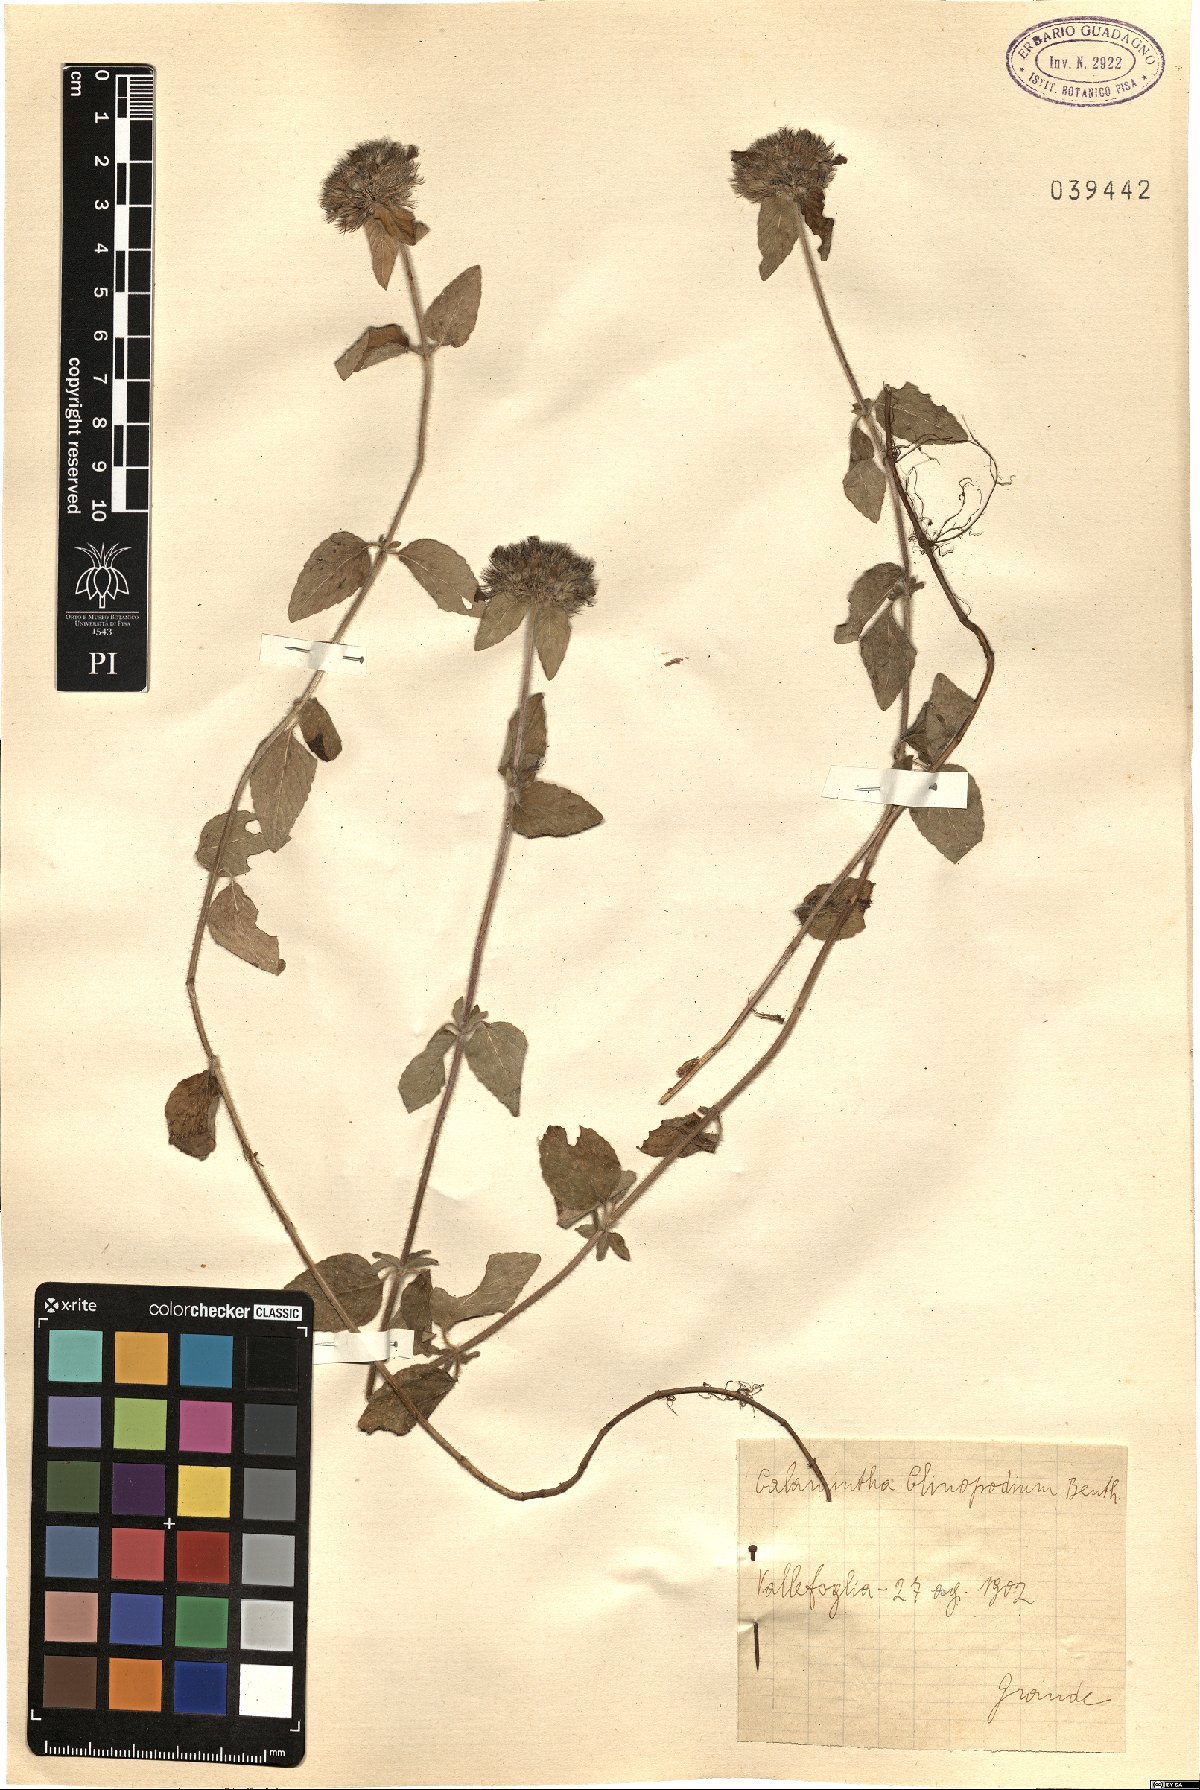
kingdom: Plantae
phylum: Tracheophyta
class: Magnoliopsida
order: Lamiales
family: Lamiaceae
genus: Clinopodium
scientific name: Clinopodium vulgare
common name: Wild basil
